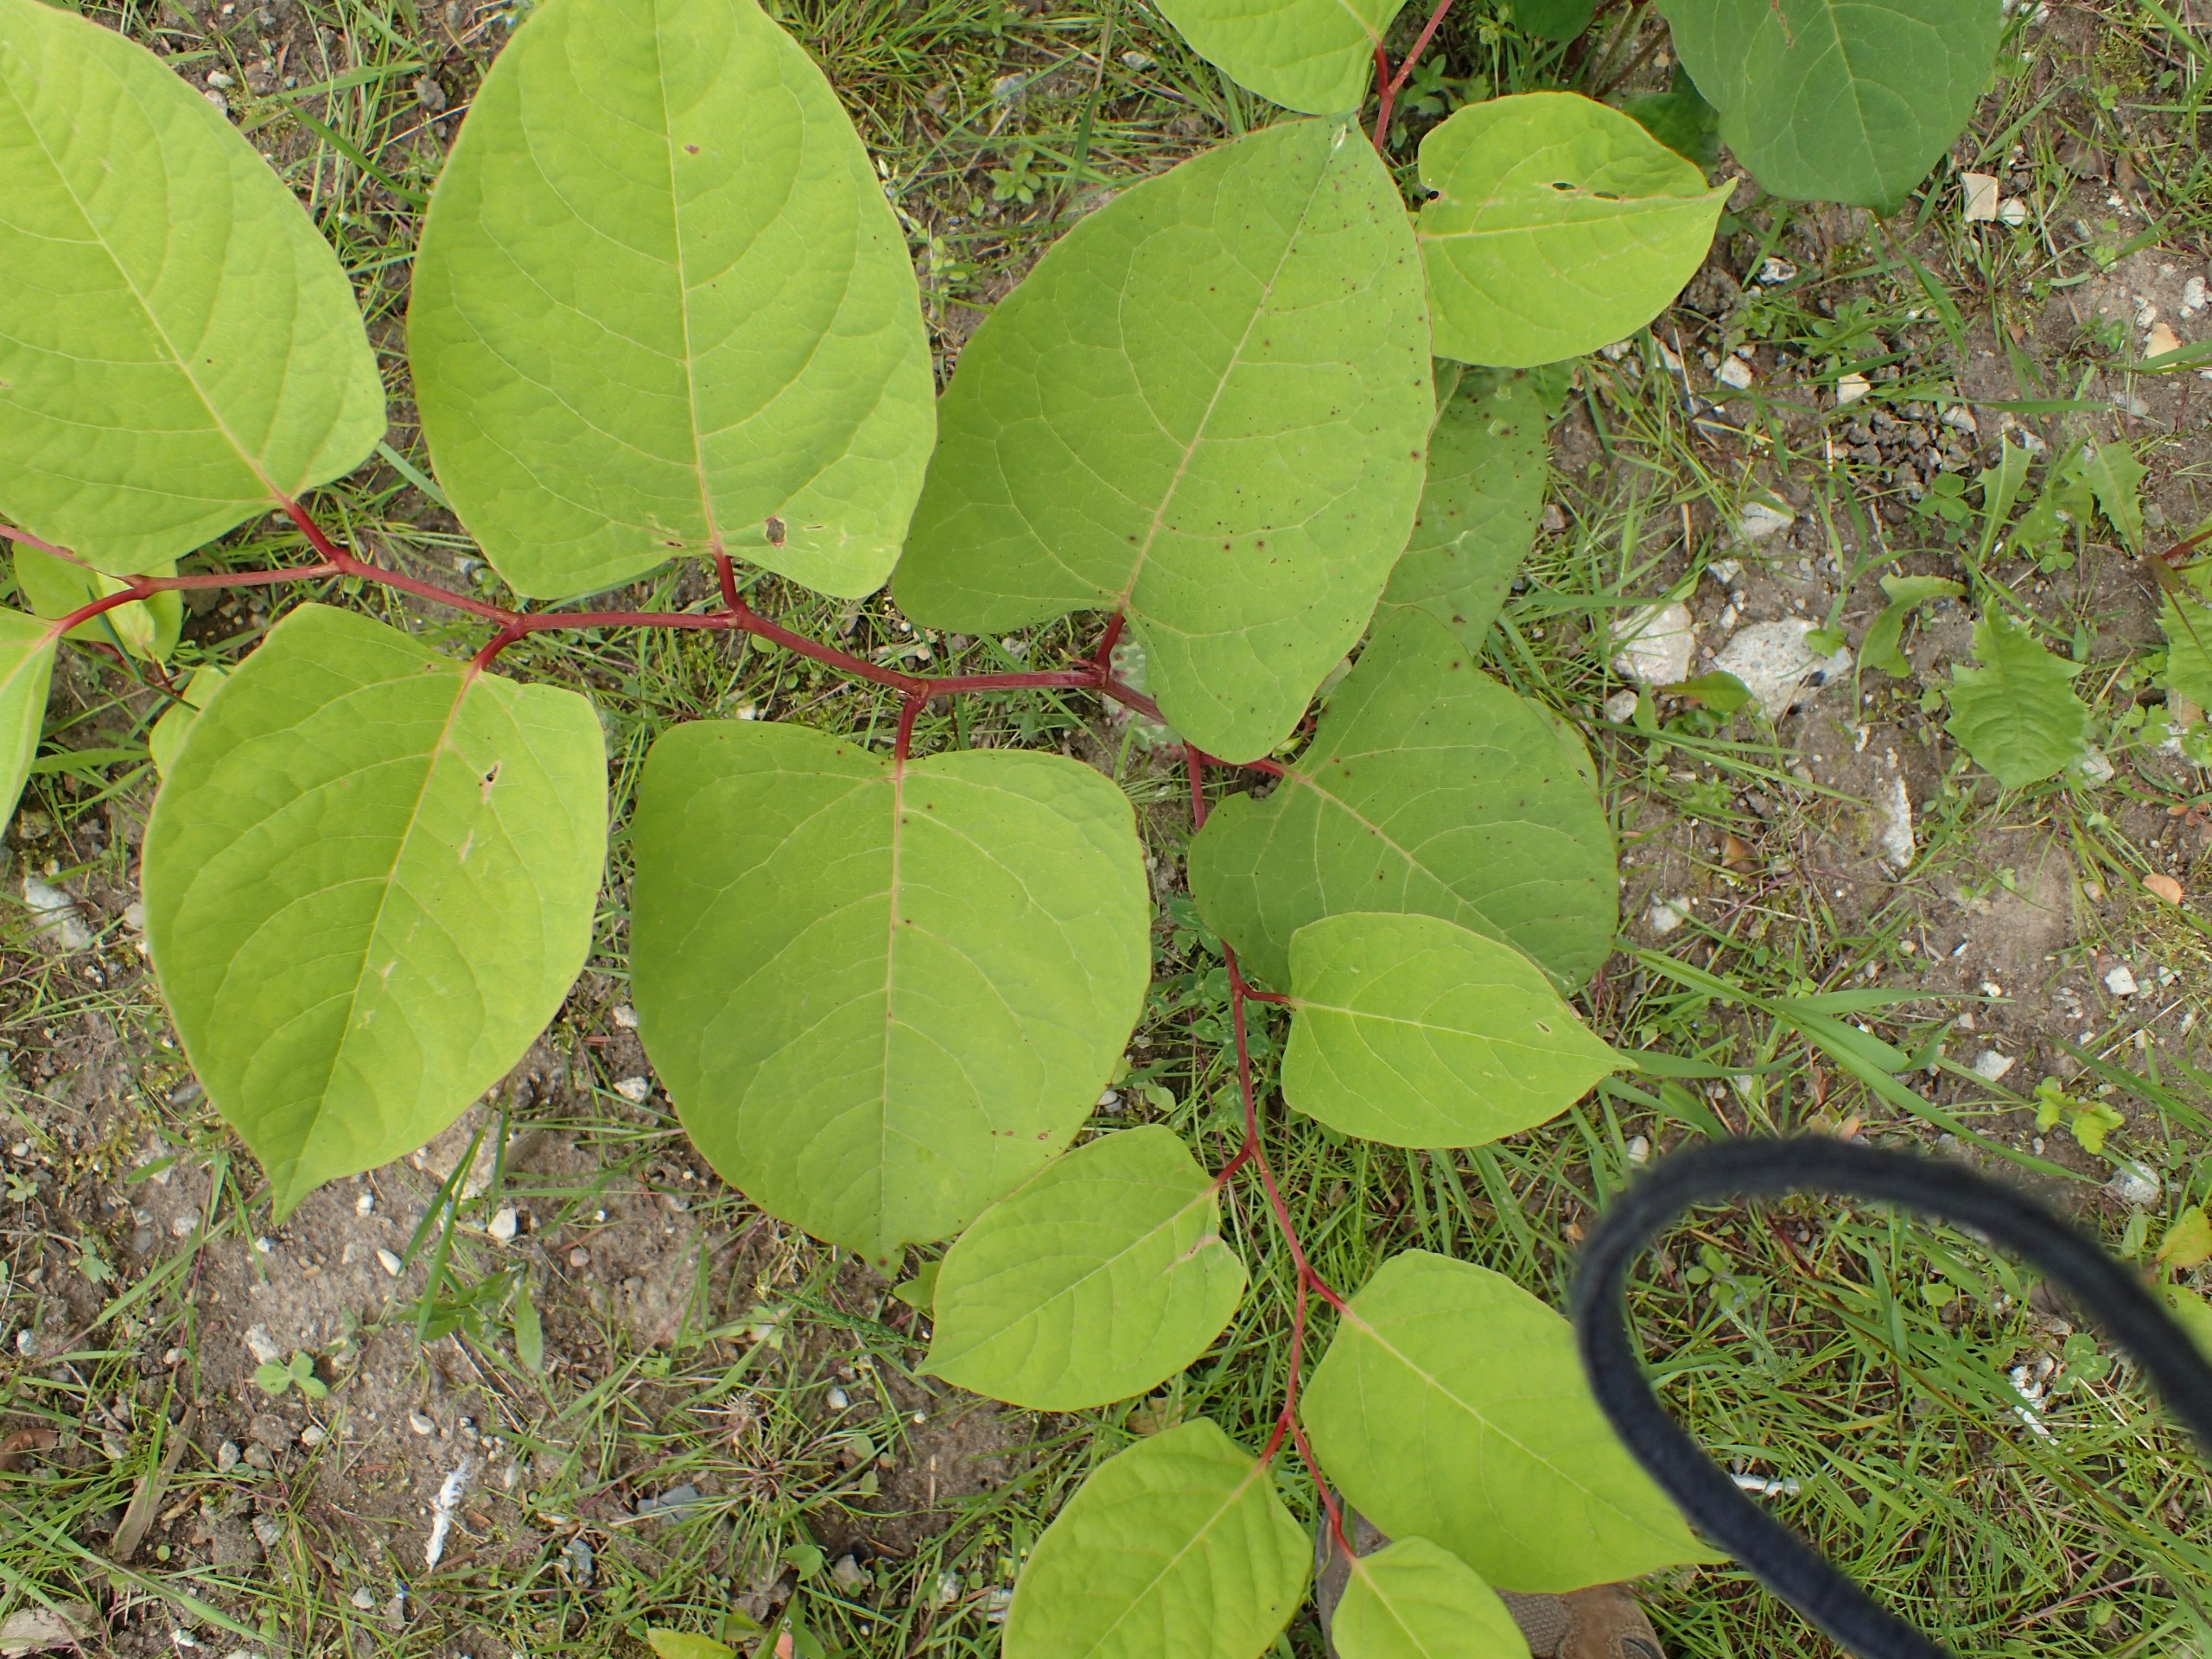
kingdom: Plantae
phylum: Tracheophyta
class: Magnoliopsida
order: Caryophyllales
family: Polygonaceae
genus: Reynoutria
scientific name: Reynoutria japonica
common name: Japan-pileurt
